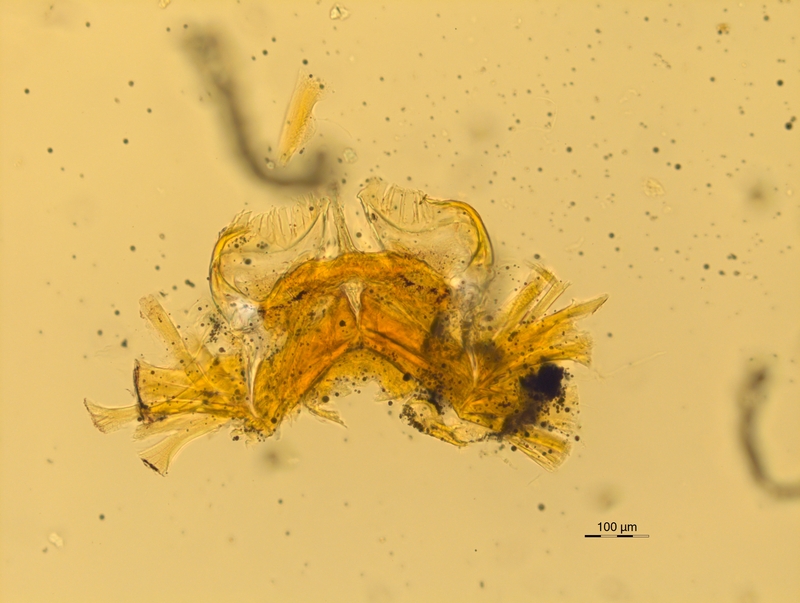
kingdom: Animalia
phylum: Arthropoda
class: Diplopoda
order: Chordeumatida
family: Attemsiidae
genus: Dendromonomeron
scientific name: Dendromonomeron lignivagum
